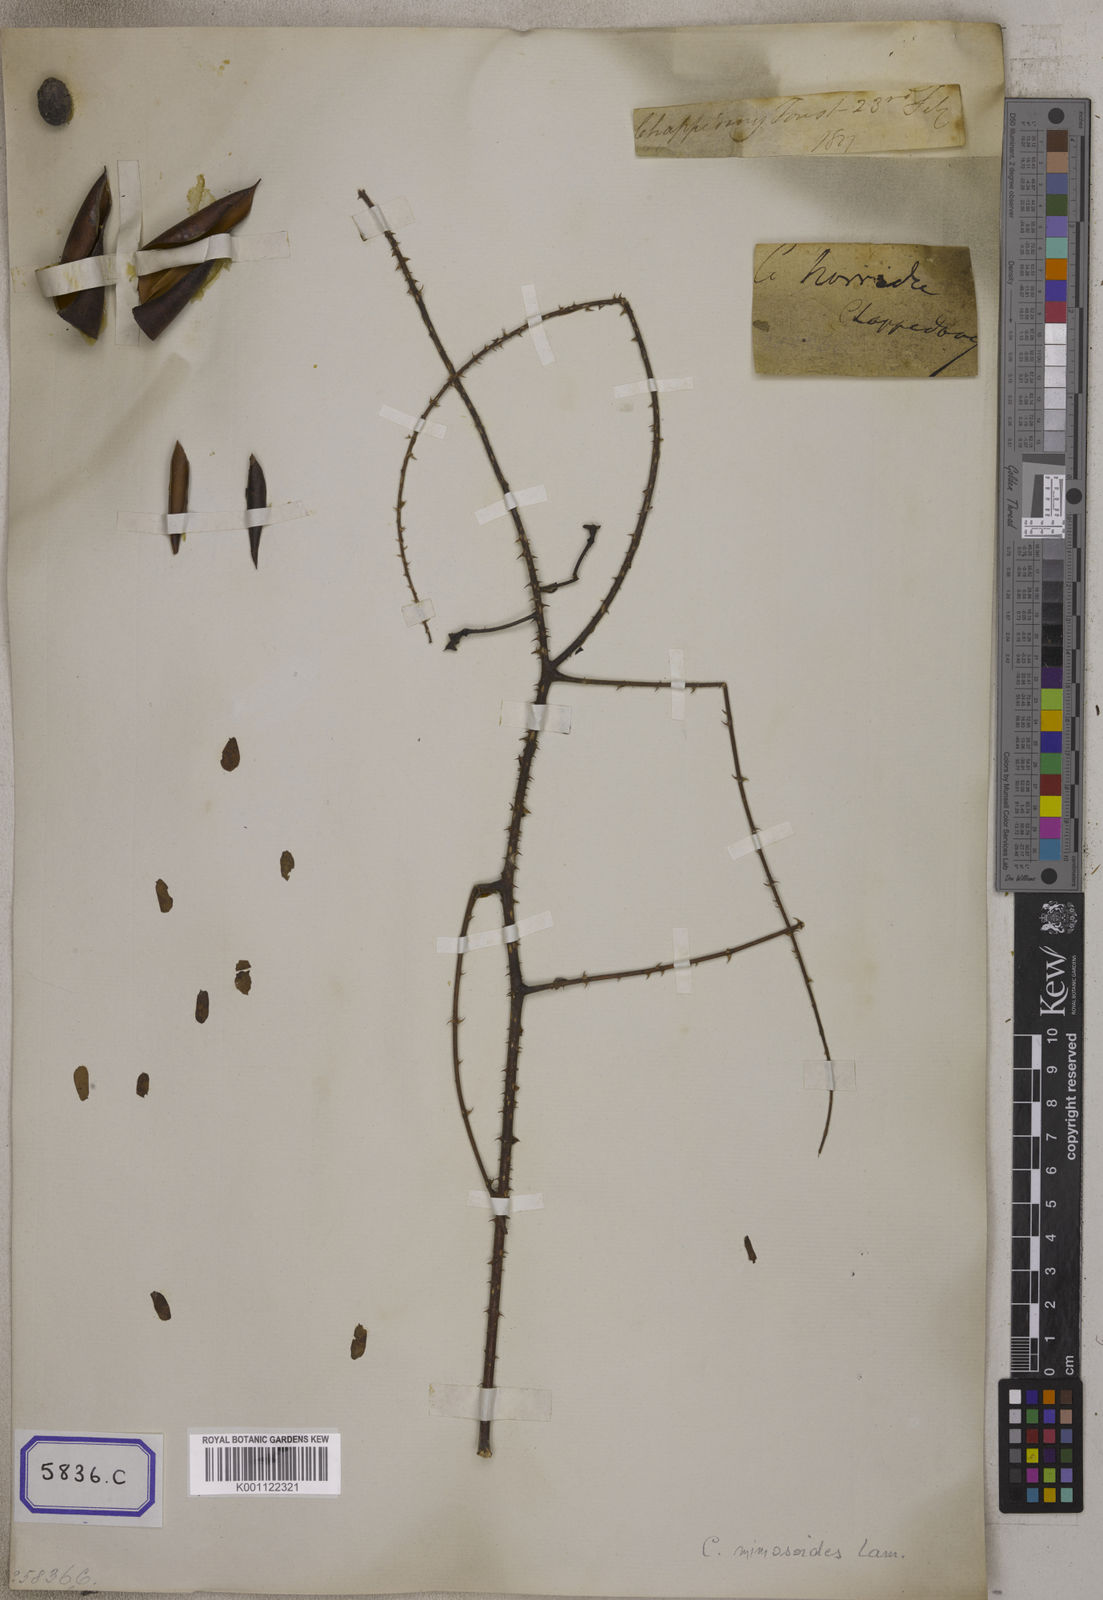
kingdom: Plantae
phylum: Tracheophyta
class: Magnoliopsida
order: Fabales
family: Fabaceae
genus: Caesalpinia
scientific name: Caesalpinia
